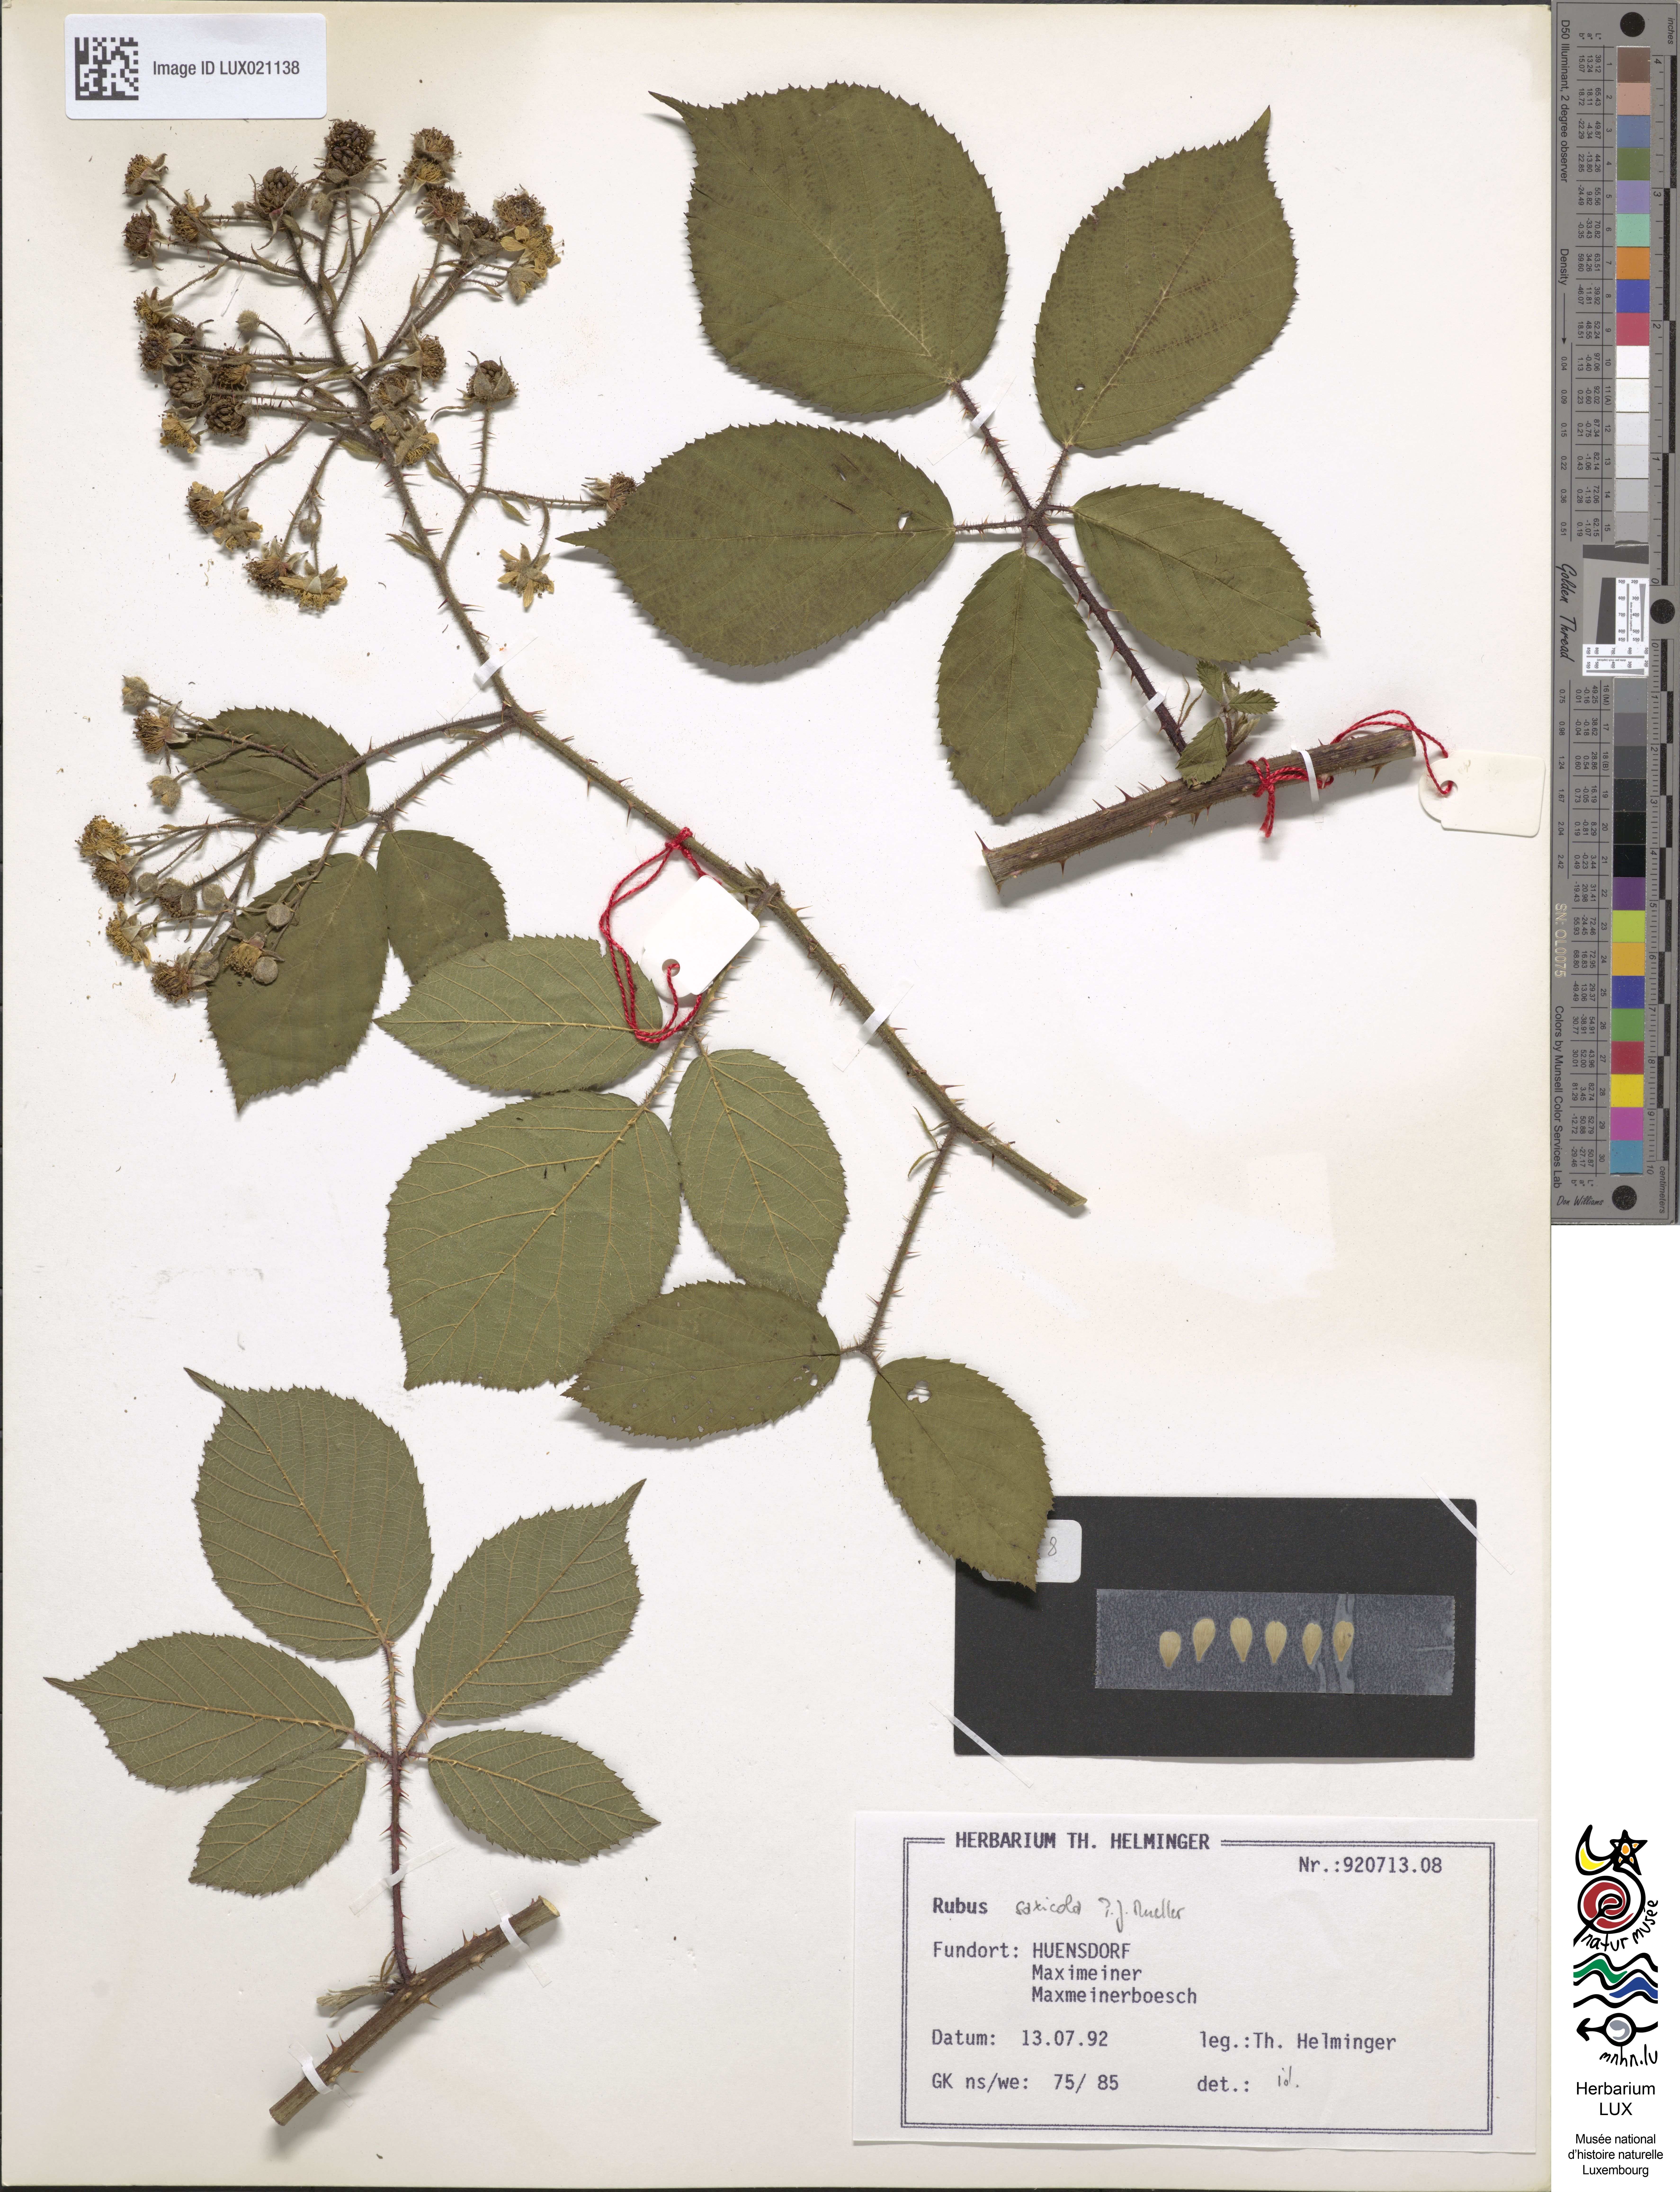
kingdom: Plantae
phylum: Tracheophyta
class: Magnoliopsida
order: Rosales
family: Rosaceae
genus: Rubus
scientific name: Rubus saxicola
